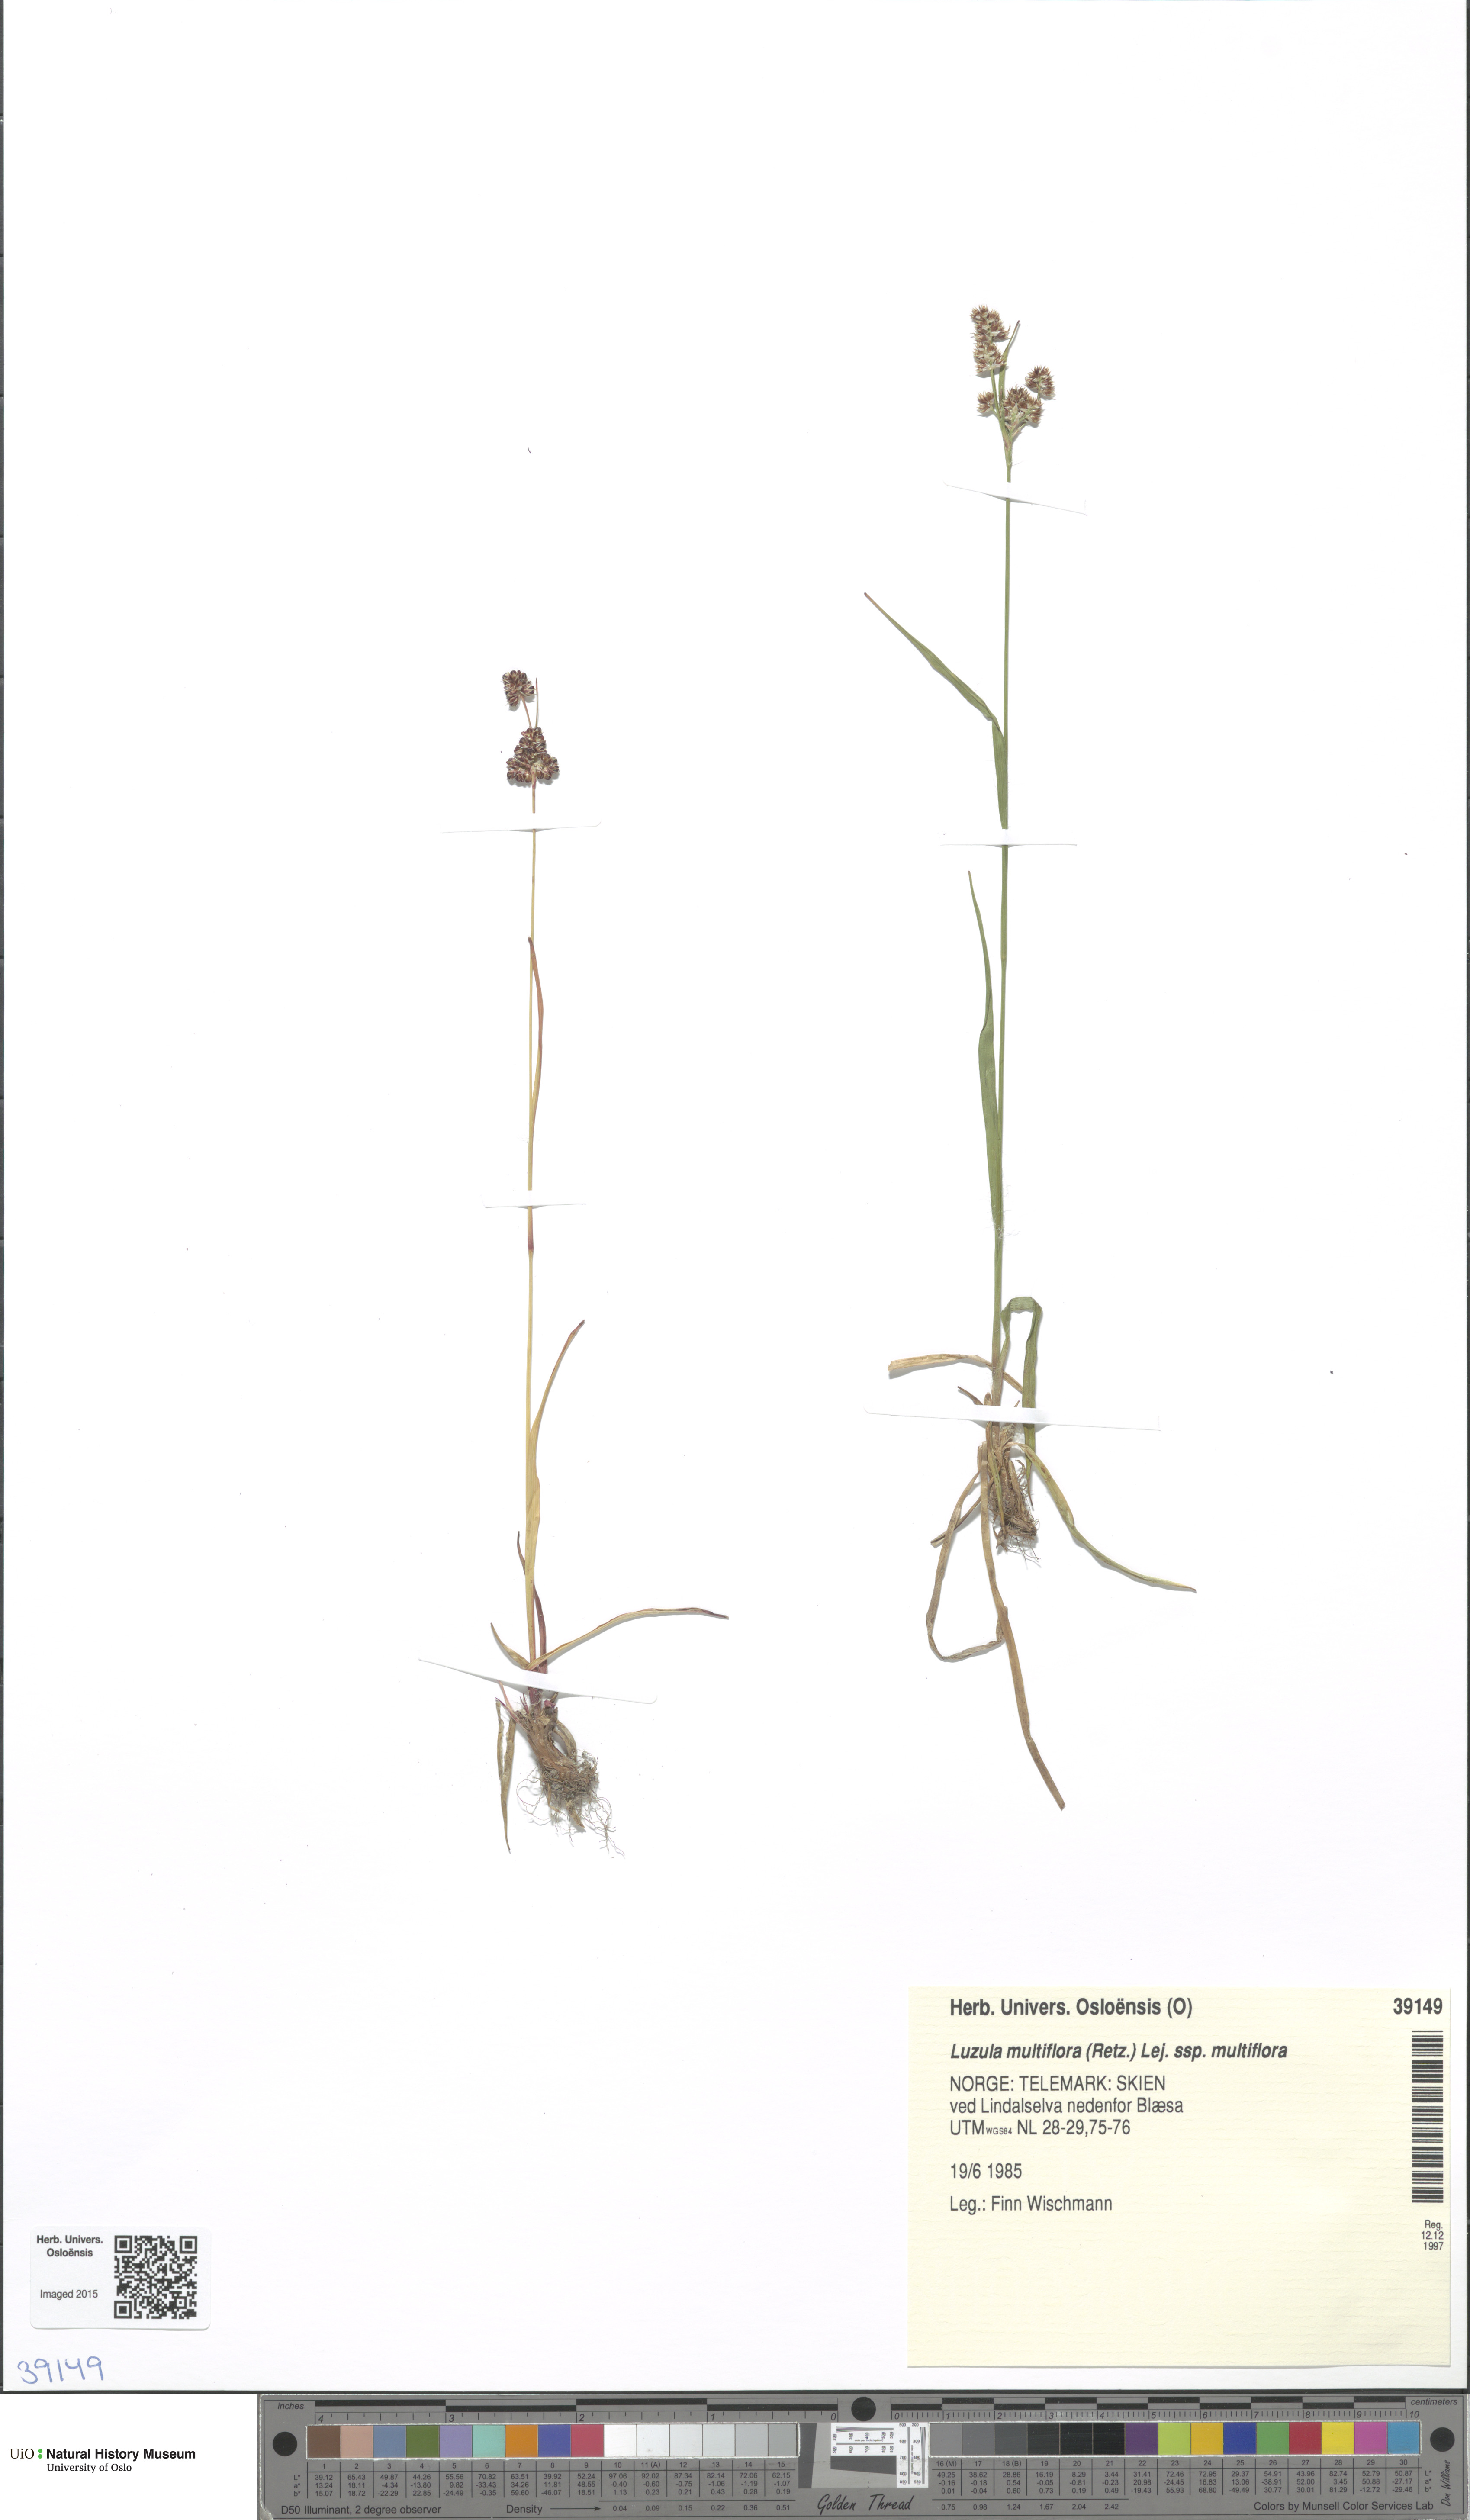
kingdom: Plantae
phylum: Tracheophyta
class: Liliopsida
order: Poales
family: Juncaceae
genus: Luzula
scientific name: Luzula multiflora
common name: Heath wood-rush
